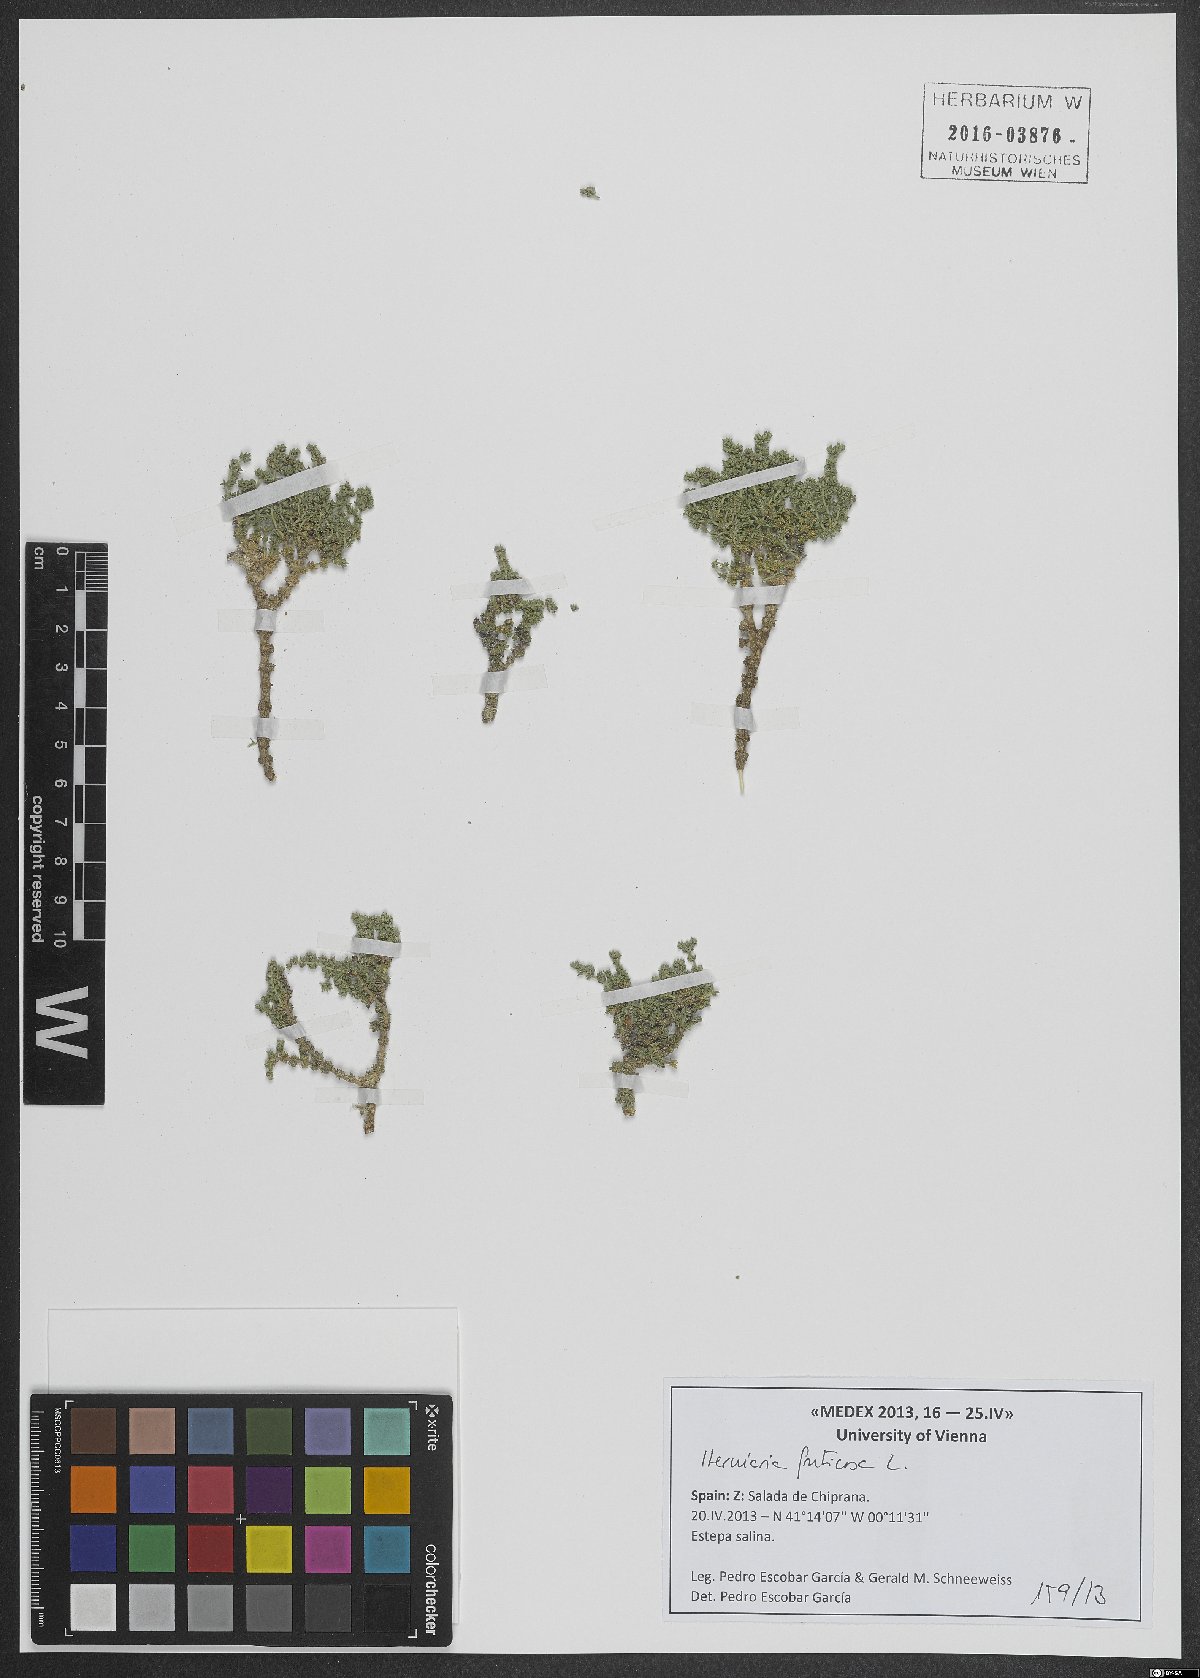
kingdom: Plantae
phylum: Tracheophyta
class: Magnoliopsida
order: Caryophyllales
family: Caryophyllaceae
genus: Herniaria
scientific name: Herniaria fruticosa
